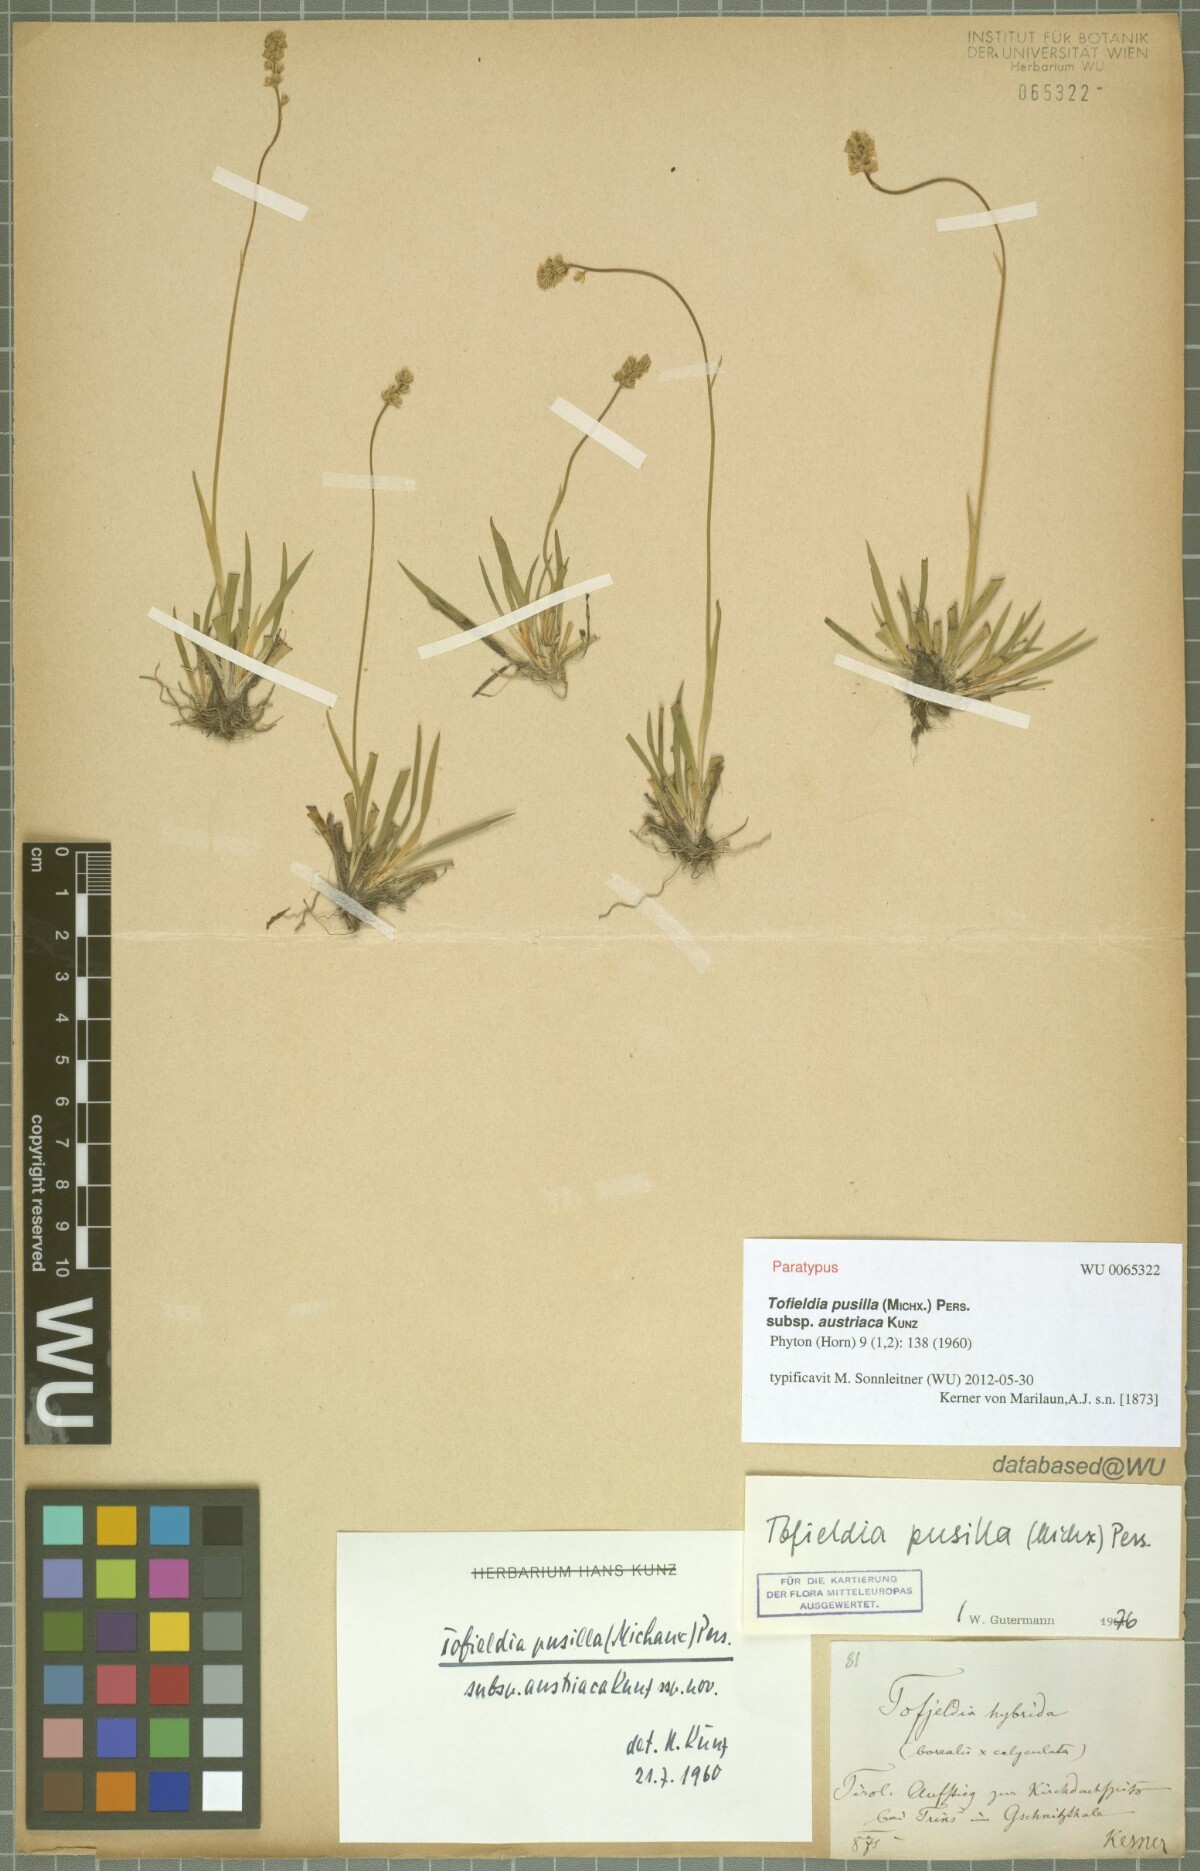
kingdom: Plantae
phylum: Tracheophyta
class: Liliopsida
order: Alismatales
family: Tofieldiaceae
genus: Tofieldia
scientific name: Tofieldia pusilla
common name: Scottish false asphodel
